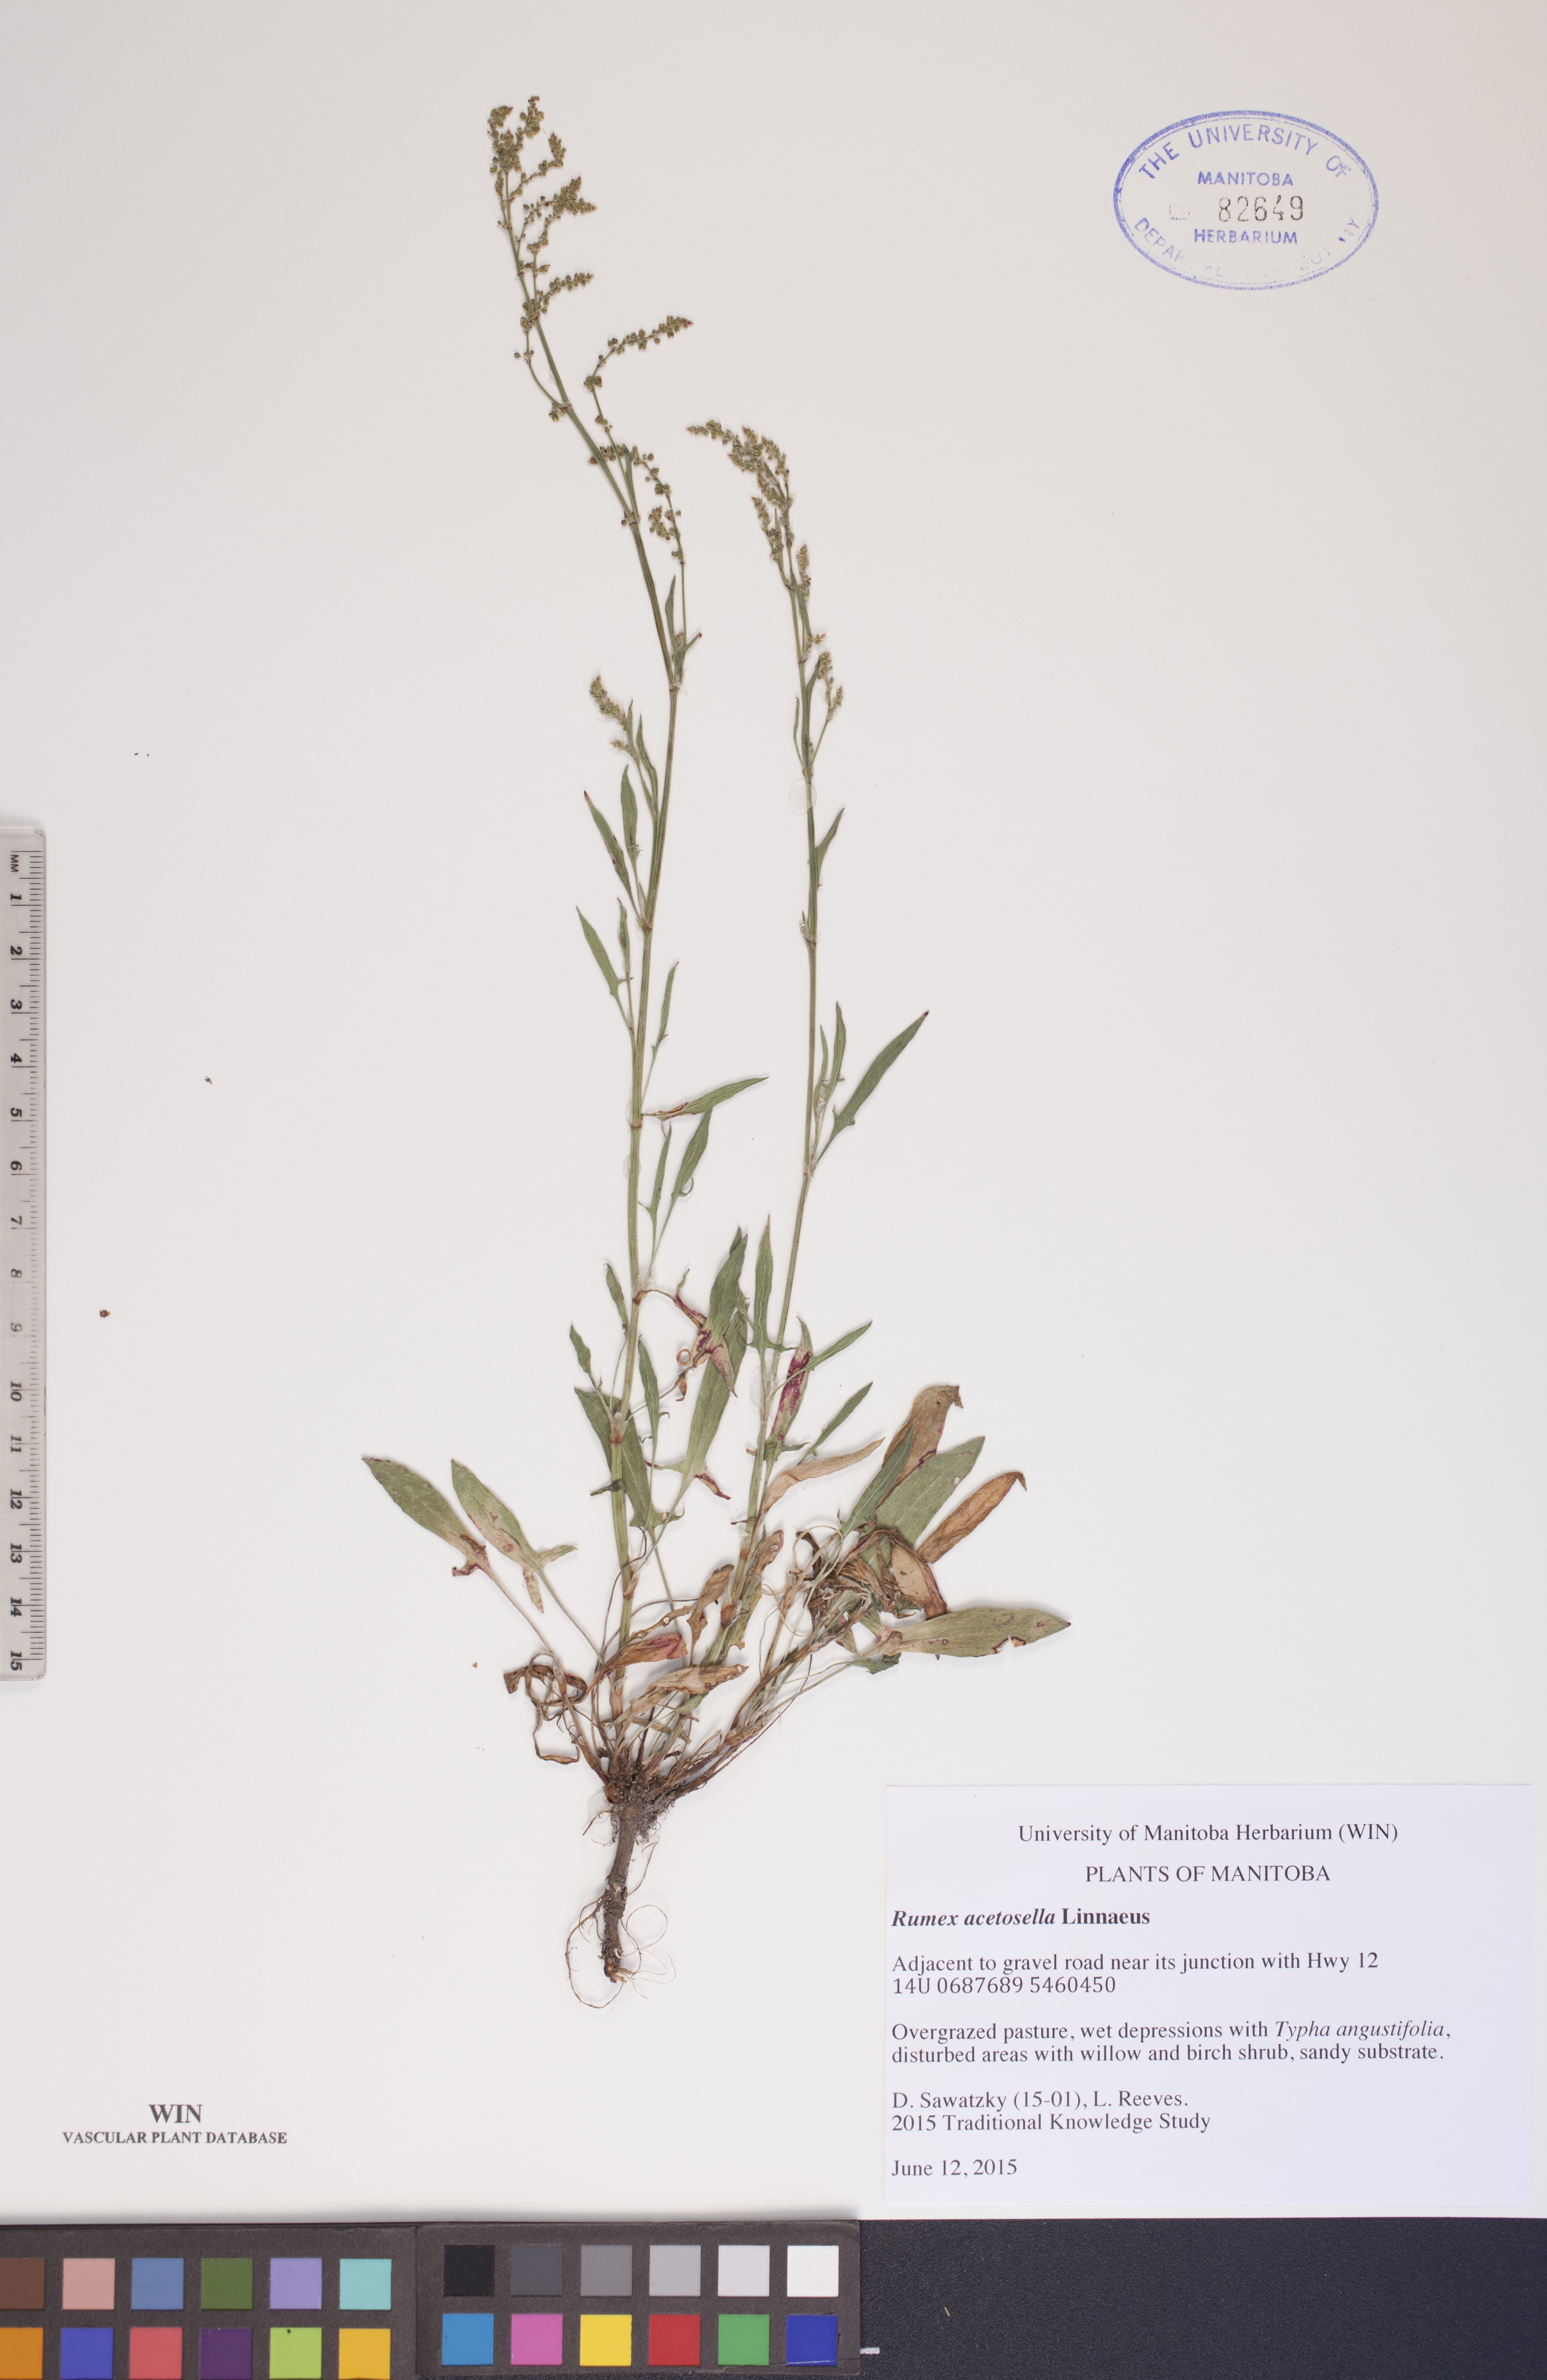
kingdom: Plantae
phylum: Tracheophyta
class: Magnoliopsida
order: Caryophyllales
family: Polygonaceae
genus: Rumex
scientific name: Rumex acetosella
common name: Common sheep sorrel
